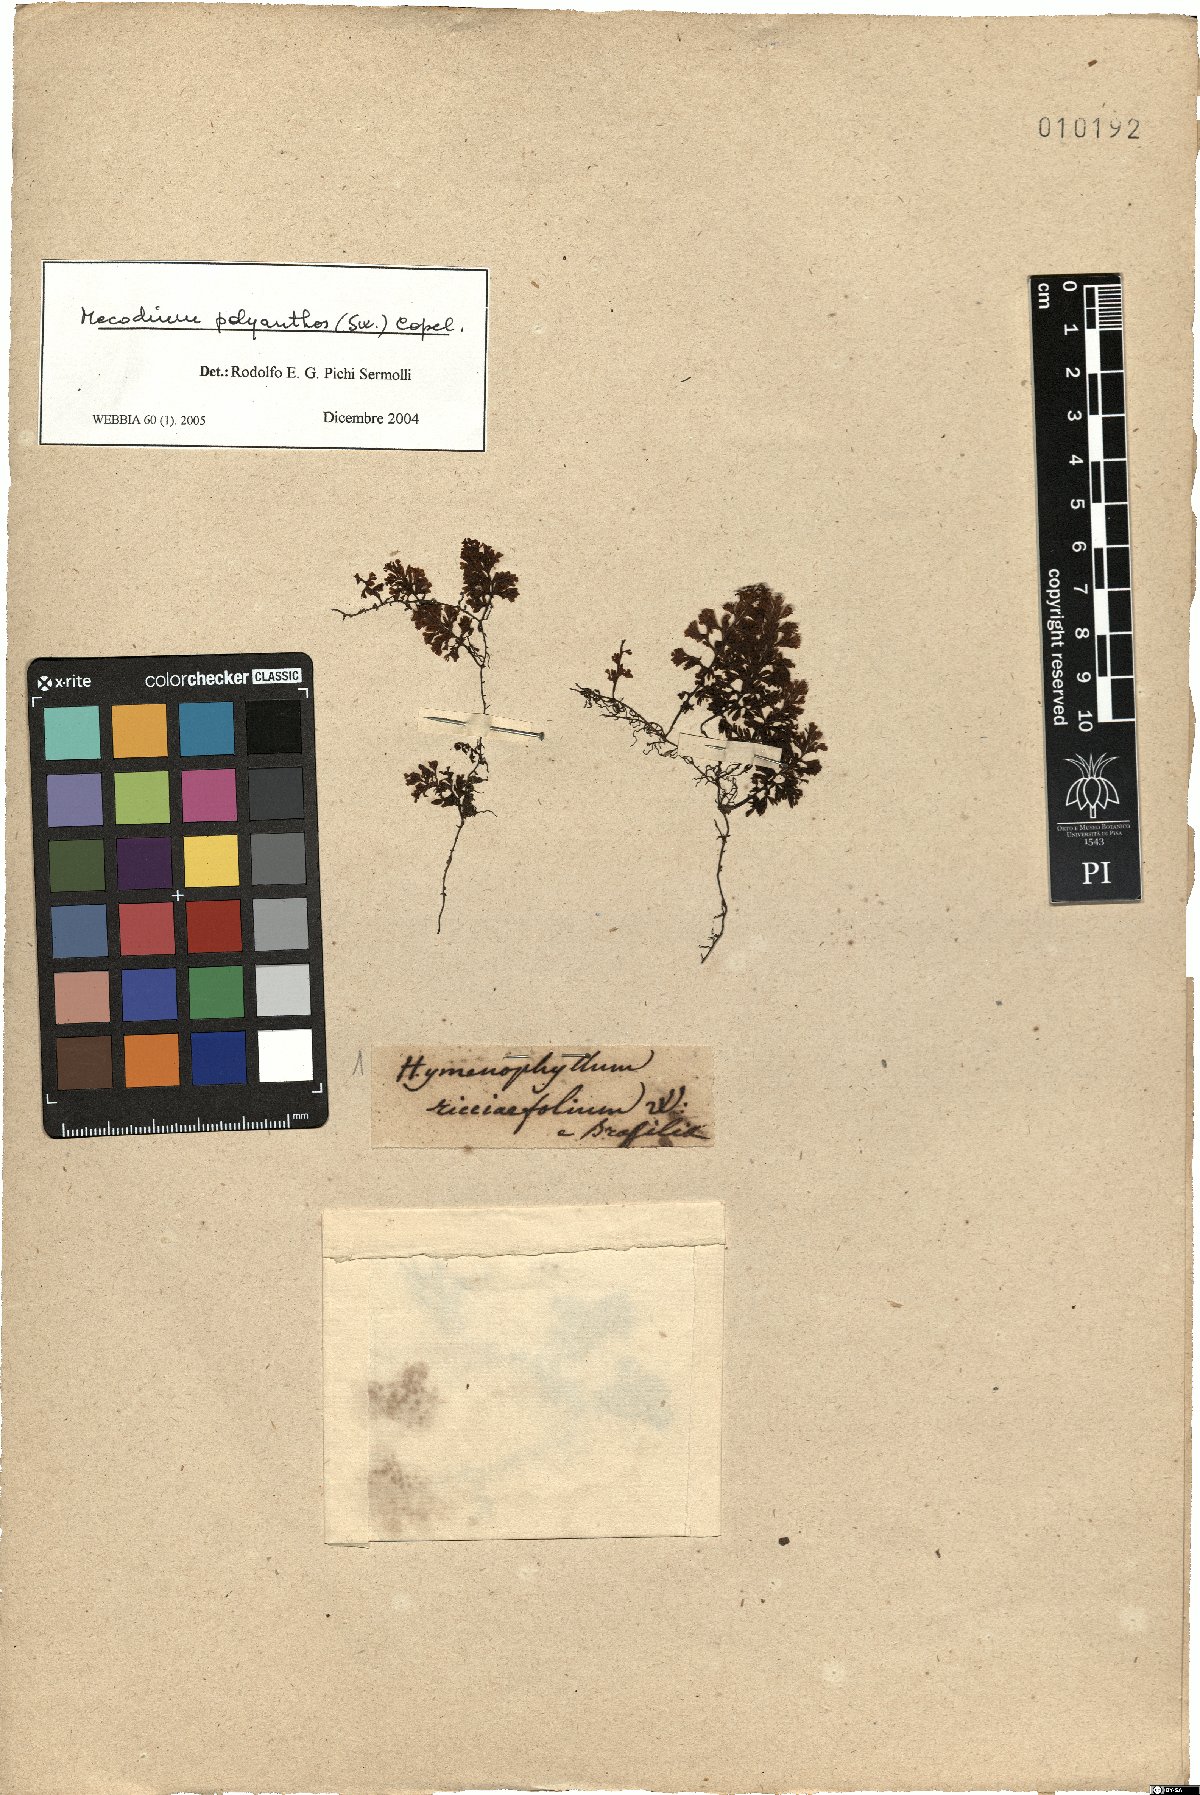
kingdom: Plantae
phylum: Tracheophyta
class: Polypodiopsida
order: Hymenophyllales
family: Hymenophyllaceae
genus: Hymenophyllum
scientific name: Hymenophyllum polyanthos
